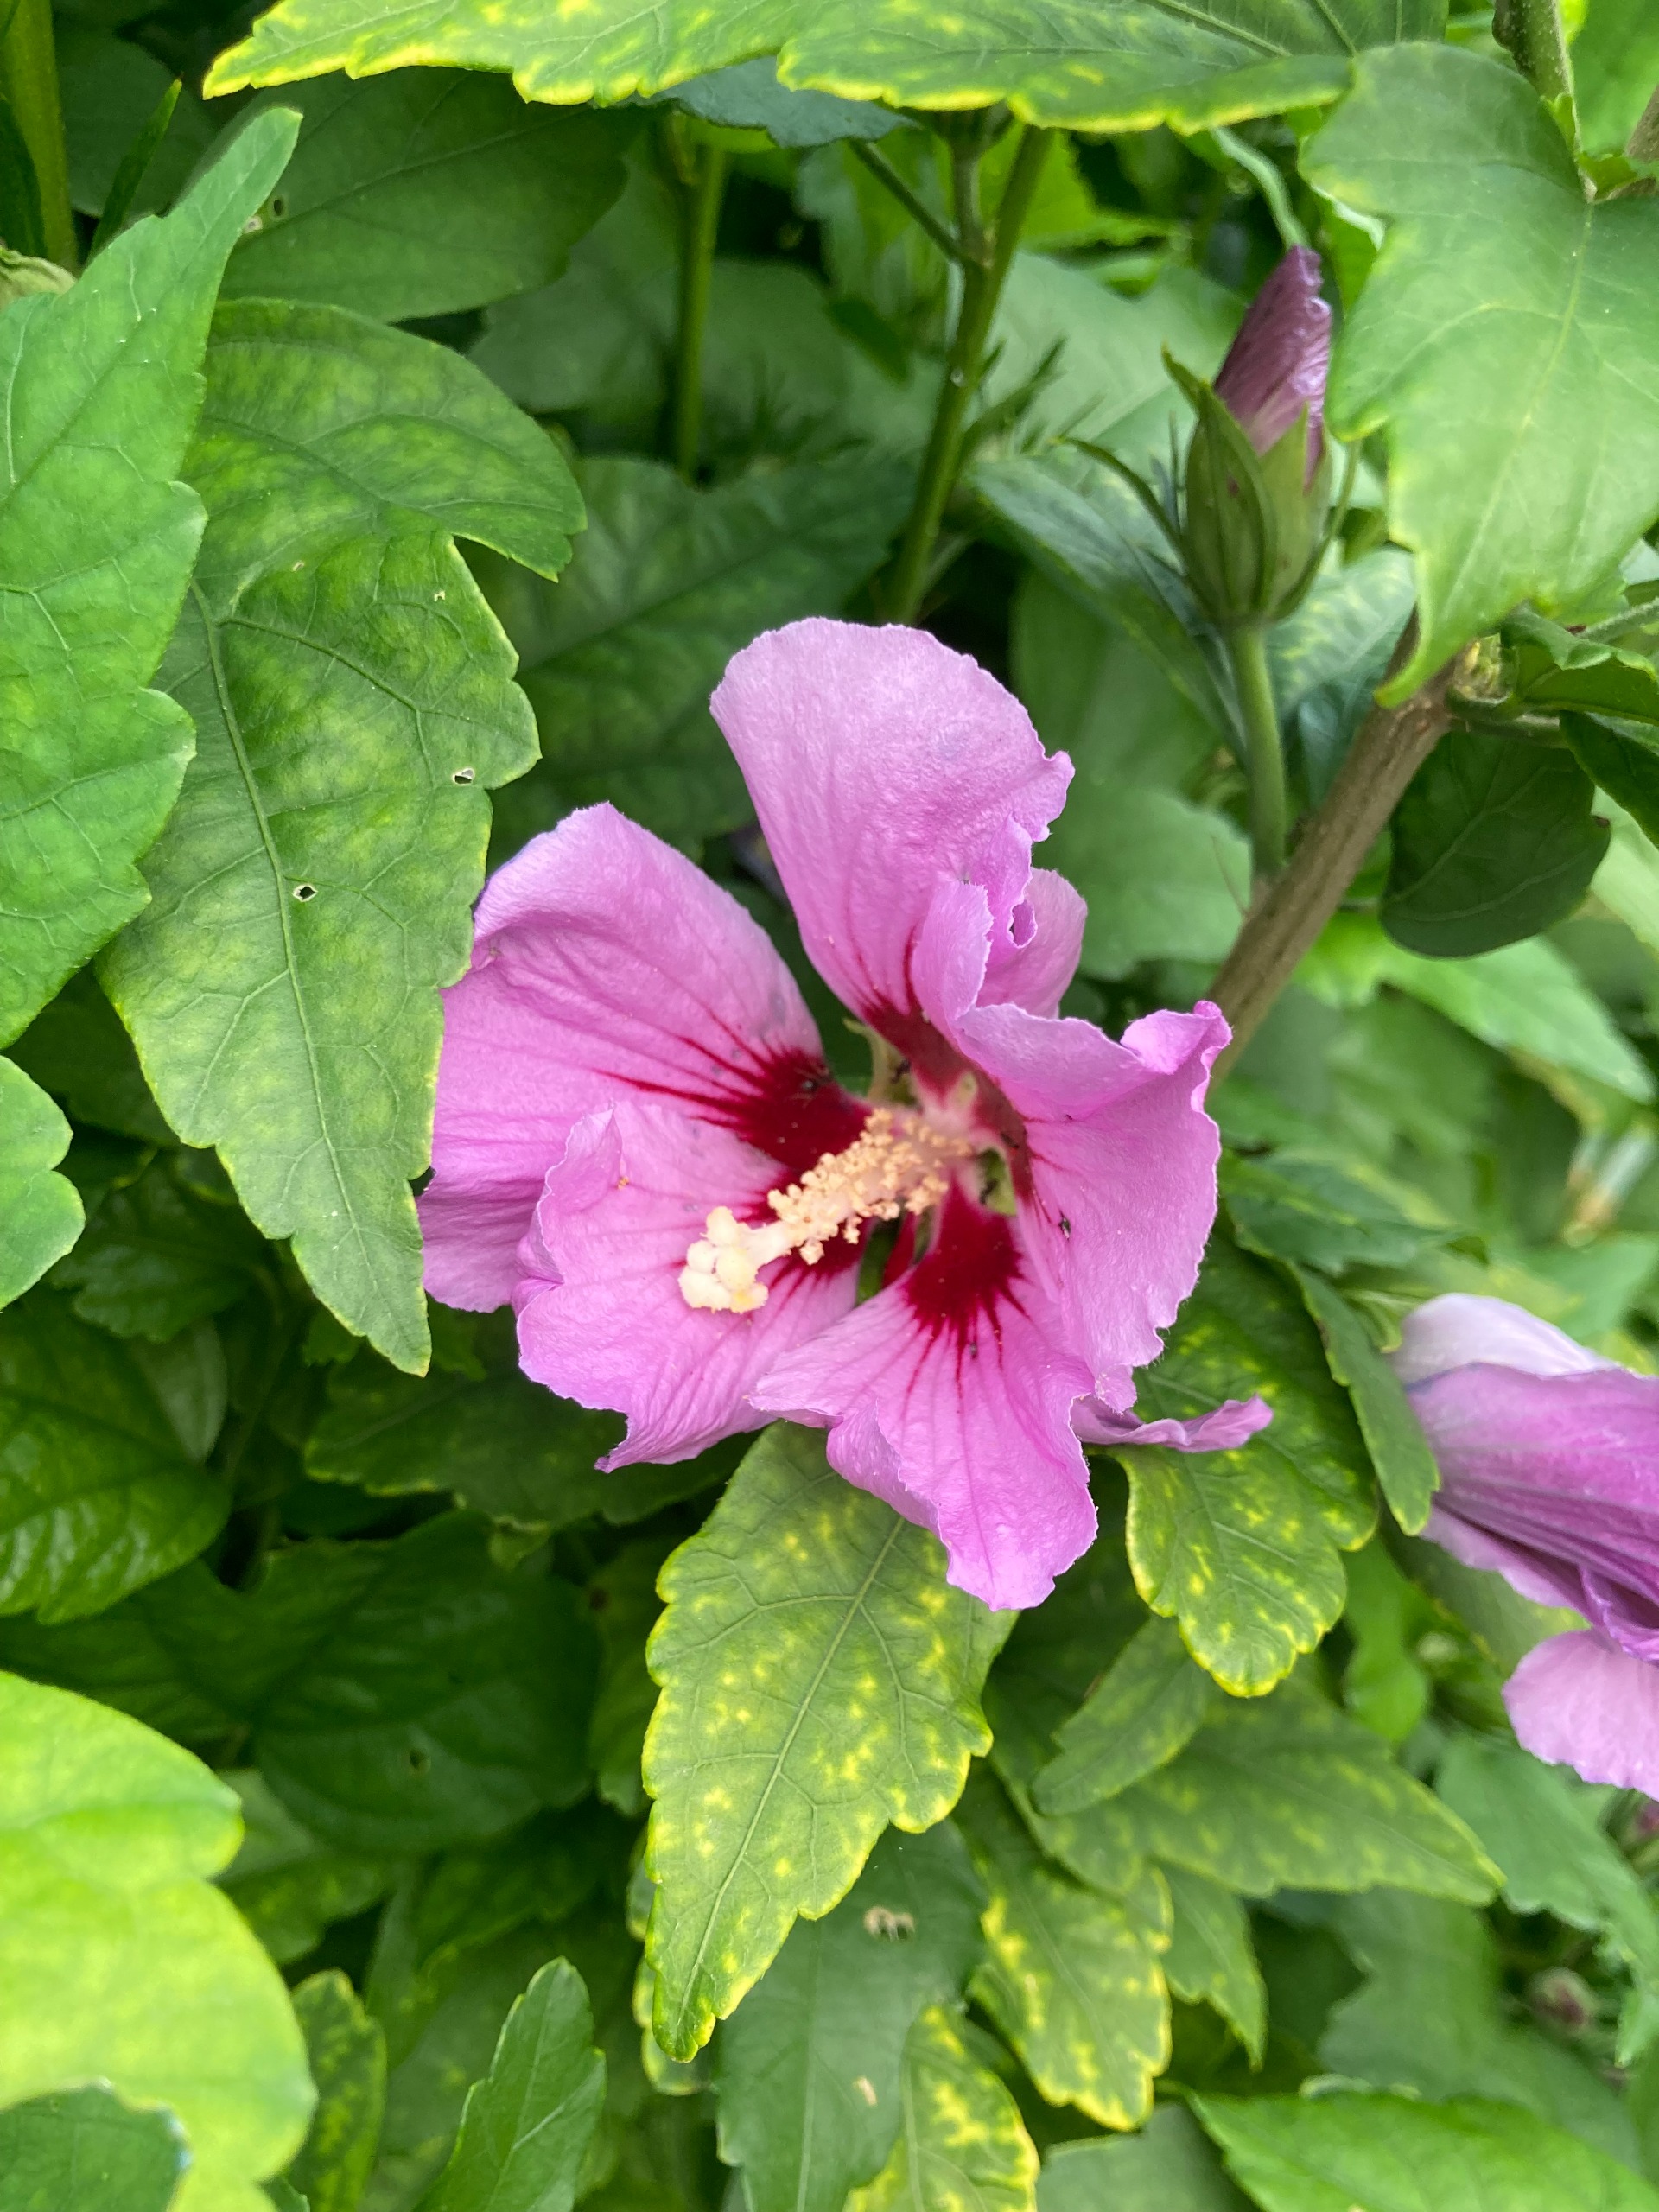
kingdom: Plantae
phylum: Tracheophyta
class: Magnoliopsida
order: Malvales
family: Malvaceae
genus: Hibiscus
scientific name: Hibiscus
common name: Hibiskusslægten
